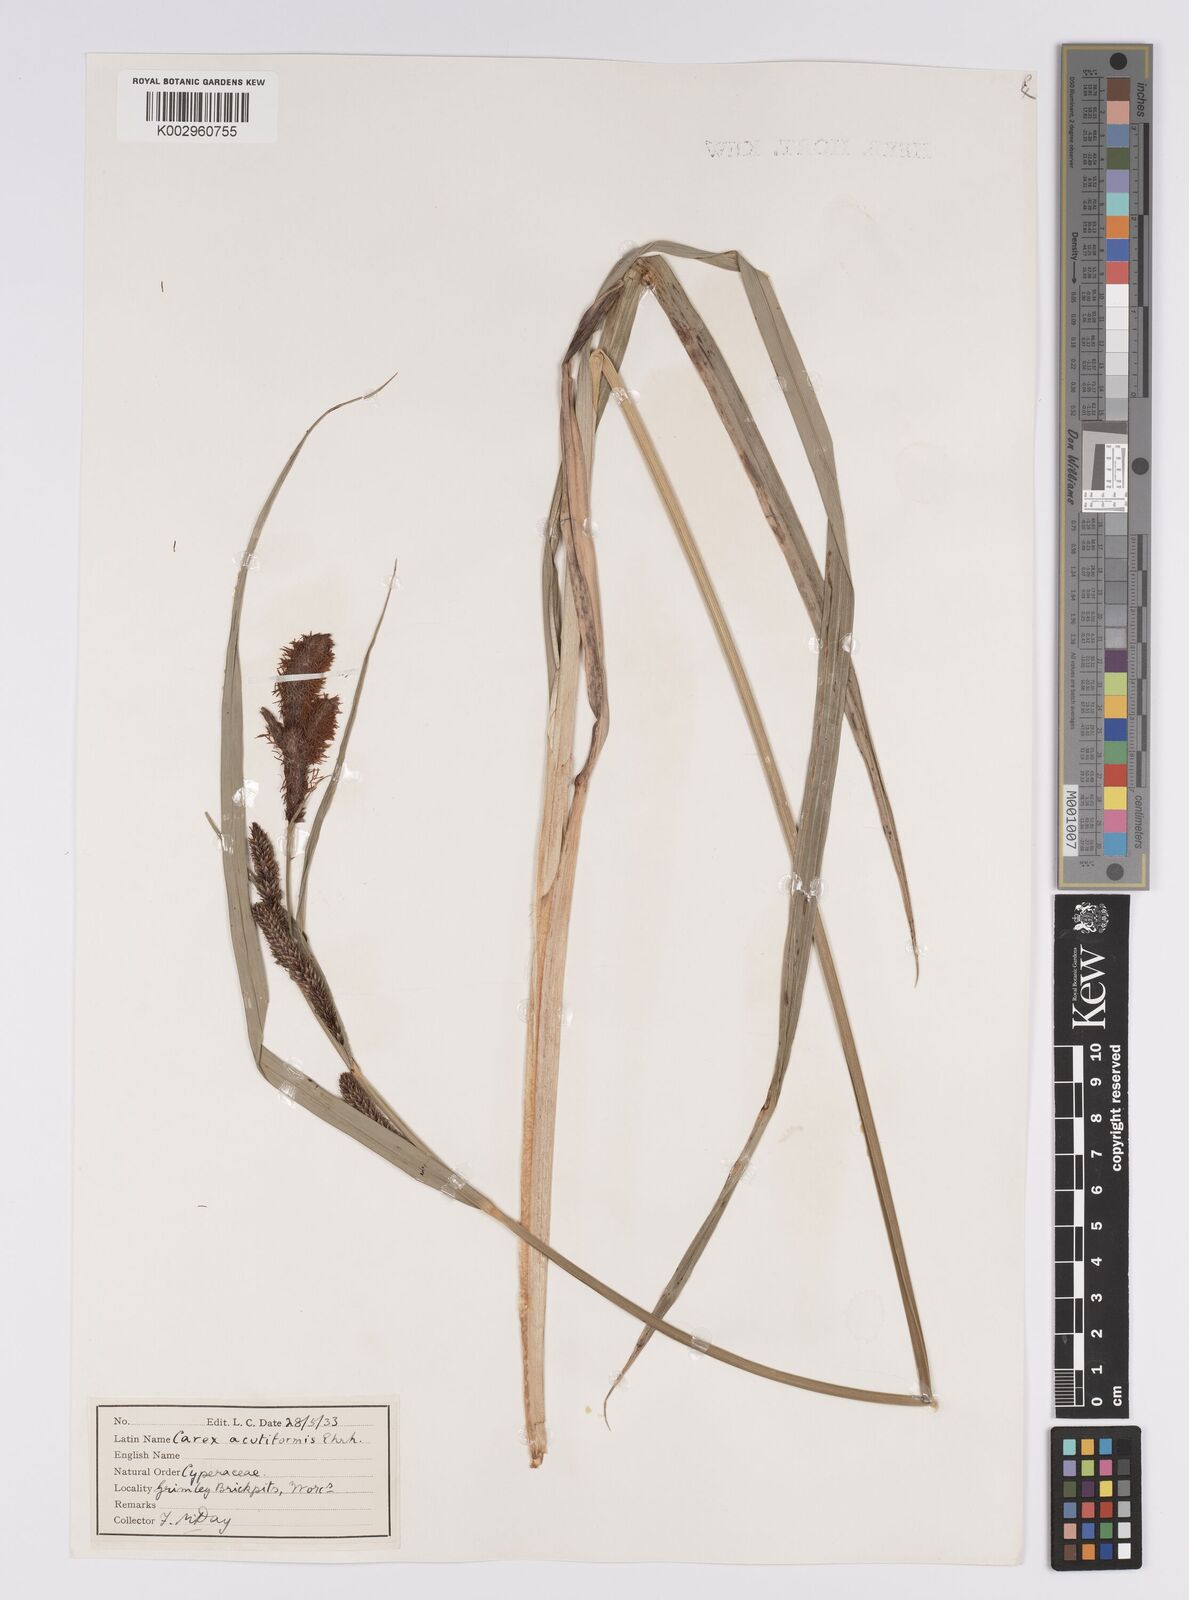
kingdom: Plantae
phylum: Tracheophyta
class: Liliopsida
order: Poales
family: Cyperaceae
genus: Carex
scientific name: Carex acutiformis
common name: Lesser pond-sedge
